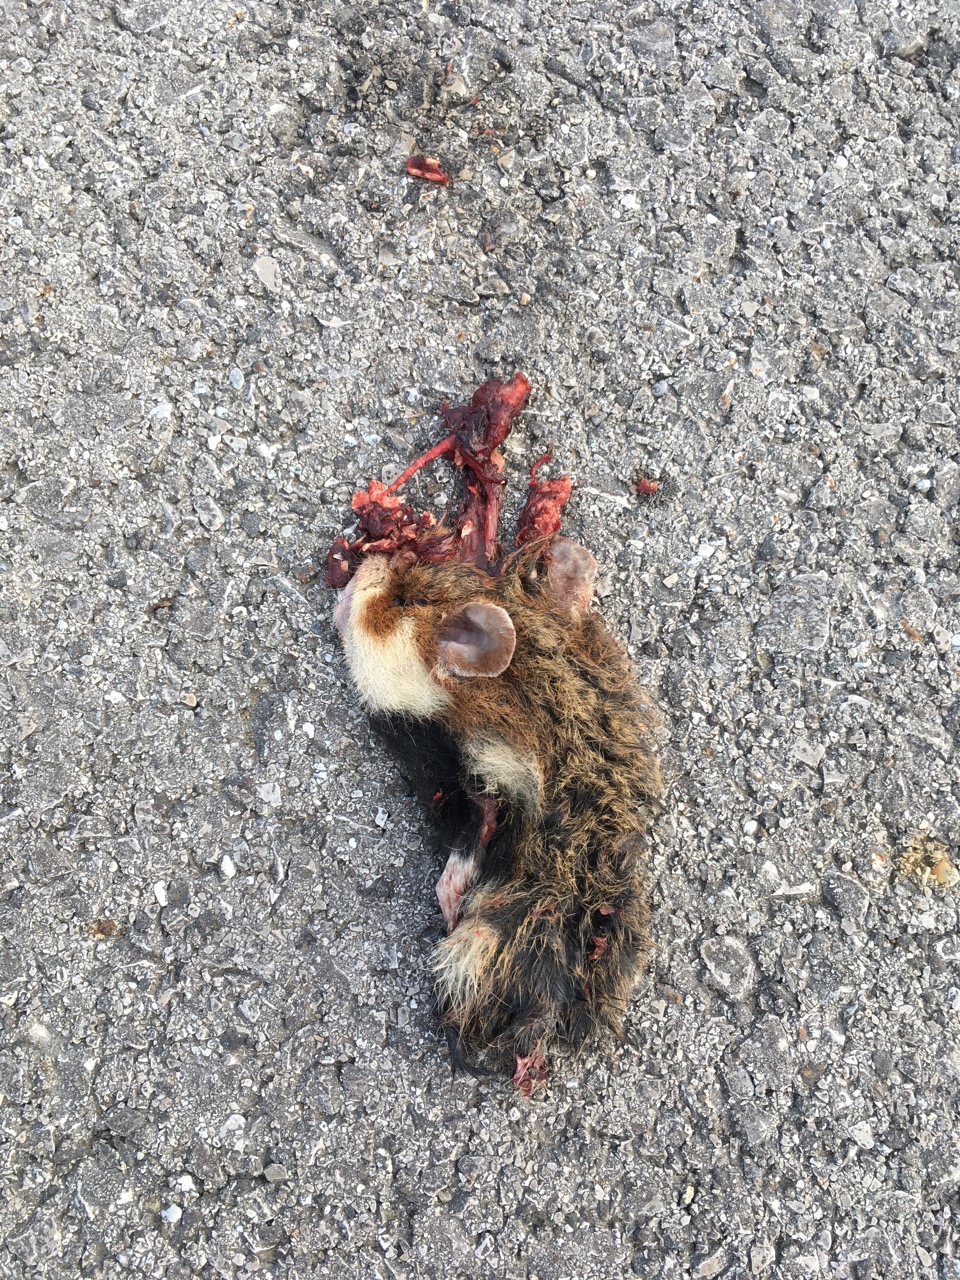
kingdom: Animalia
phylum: Chordata
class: Mammalia
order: Rodentia
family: Cricetidae
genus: Cricetus
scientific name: Cricetus cricetus
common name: Common hamster
